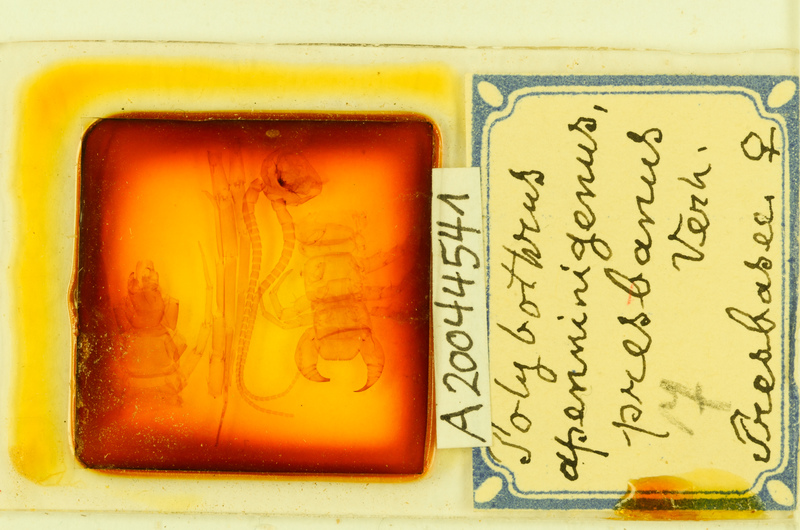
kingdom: Animalia
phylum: Arthropoda
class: Chilopoda
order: Lithobiomorpha
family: Lithobiidae
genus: Polybothrus
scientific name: Polybothrus
